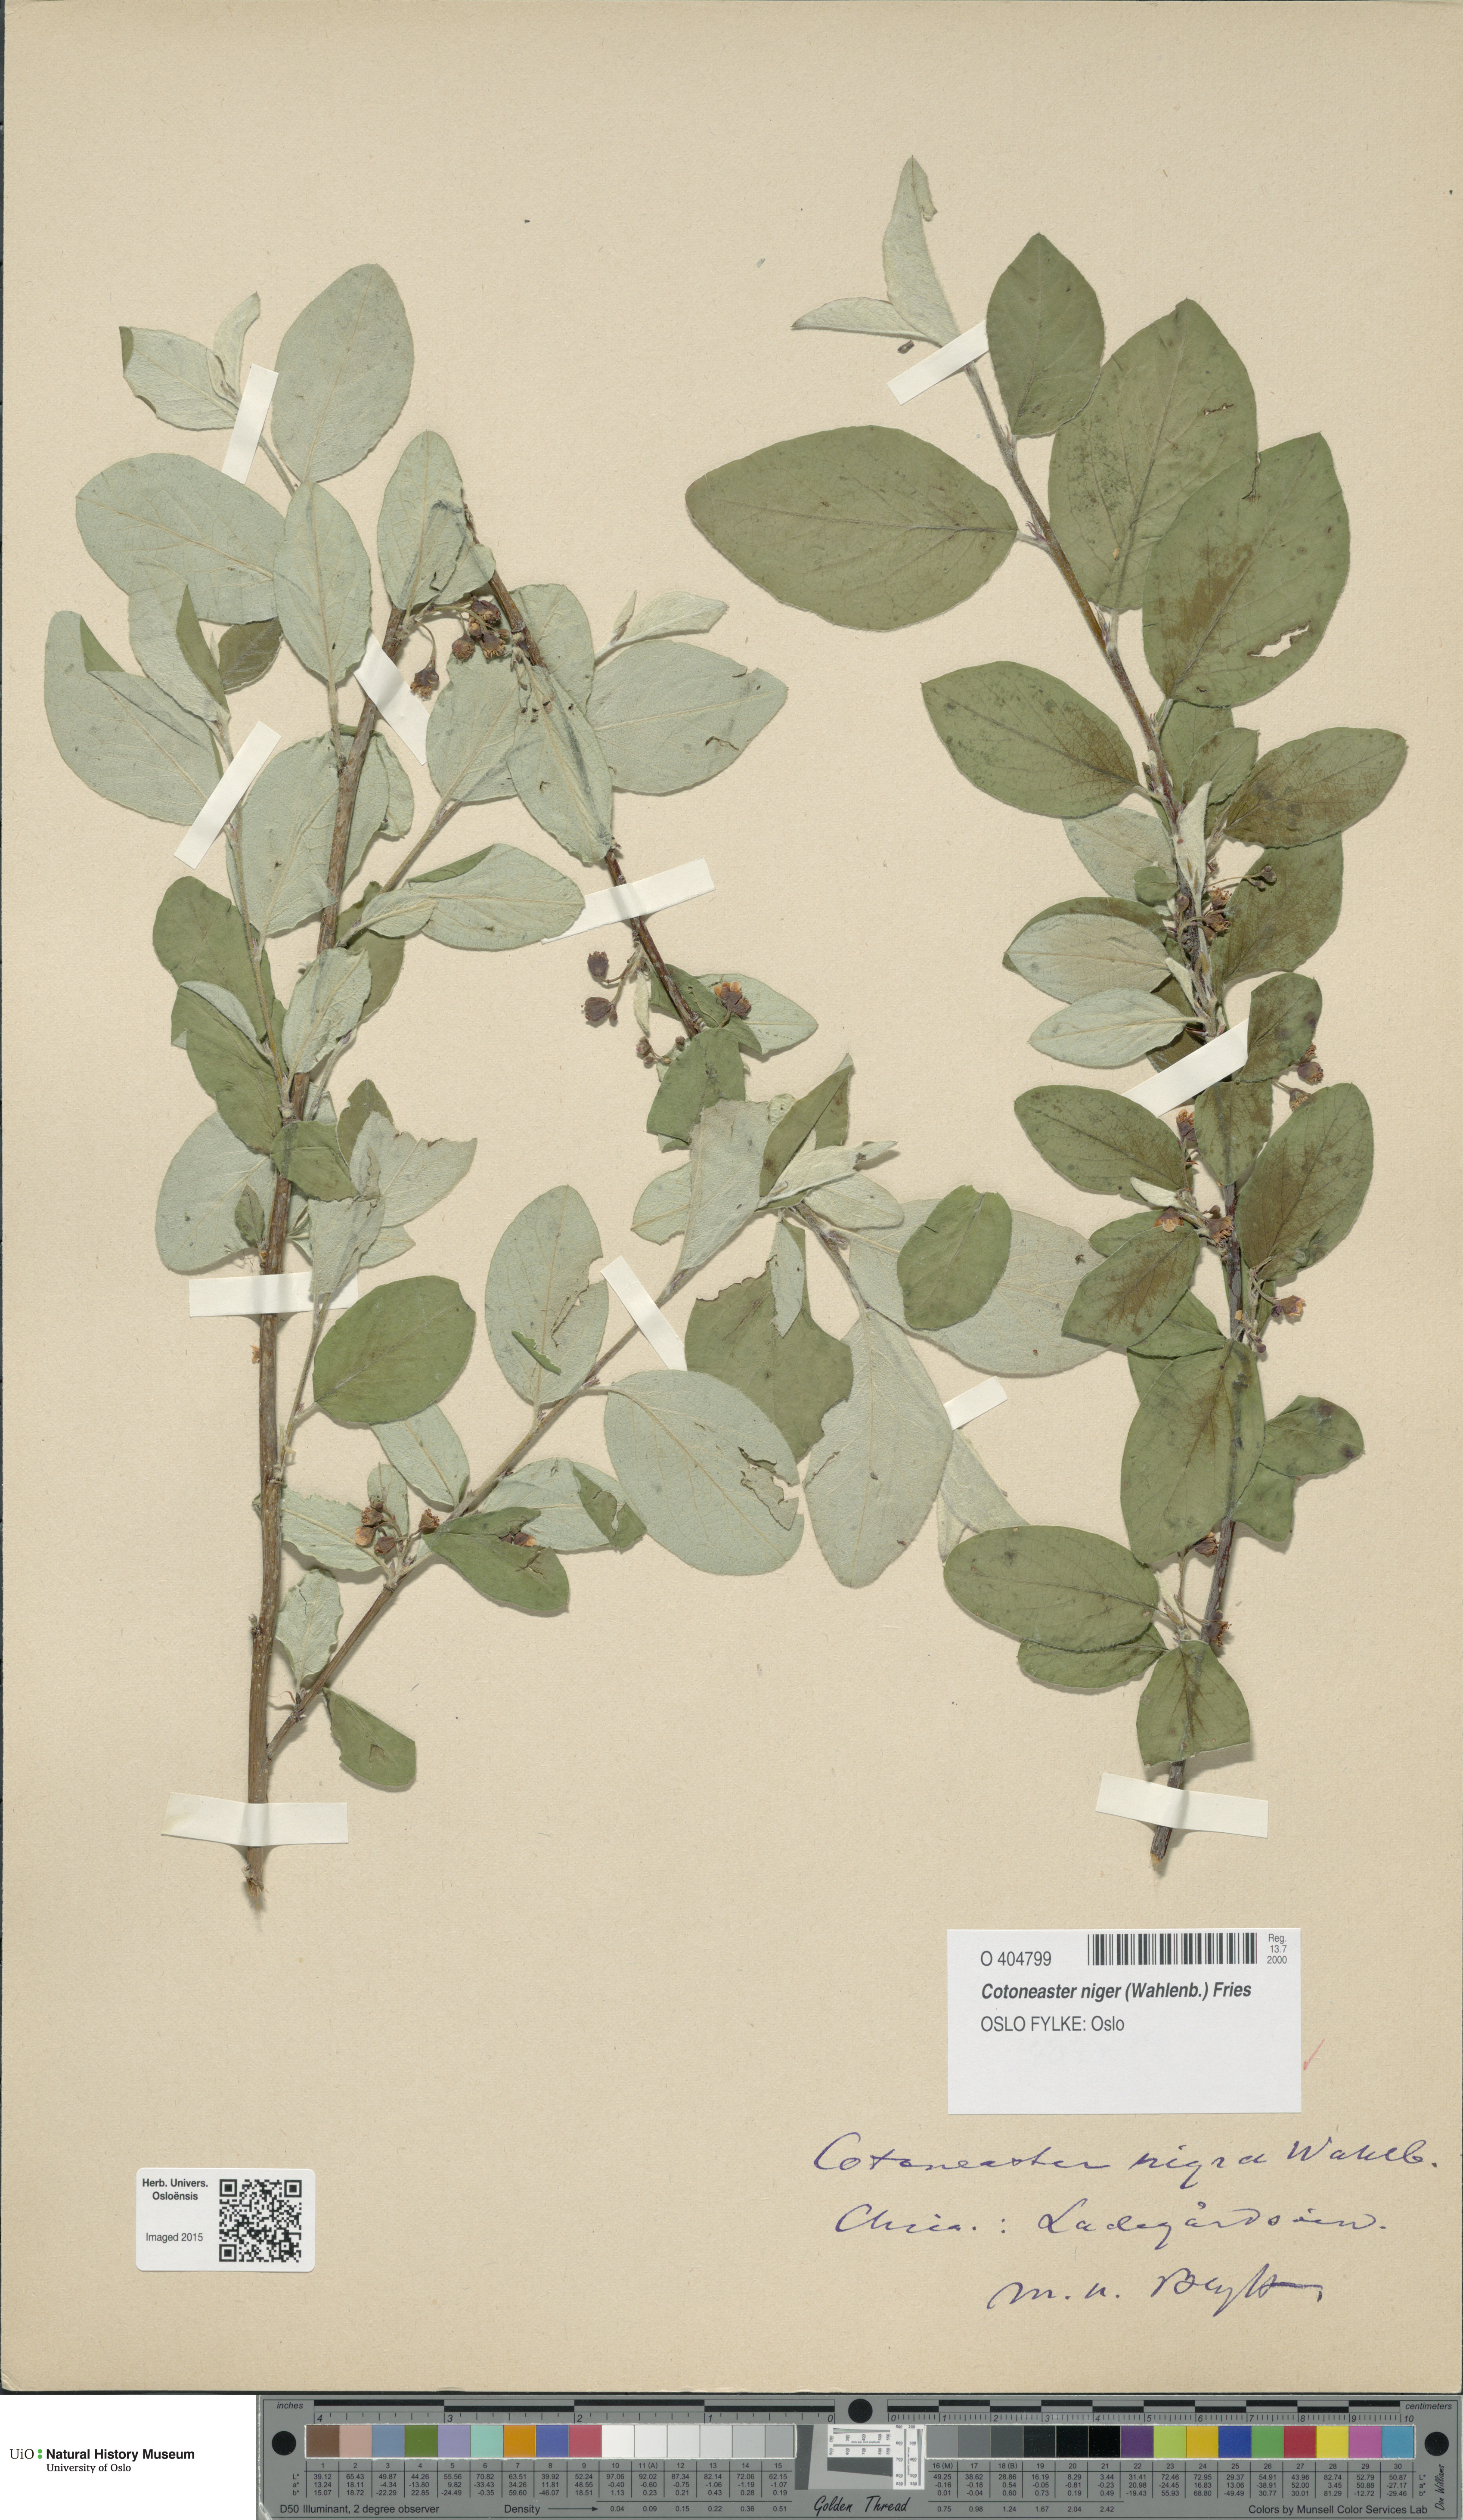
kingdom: Plantae
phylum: Tracheophyta
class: Magnoliopsida
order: Rosales
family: Rosaceae
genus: Cotoneaster
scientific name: Cotoneaster niger
